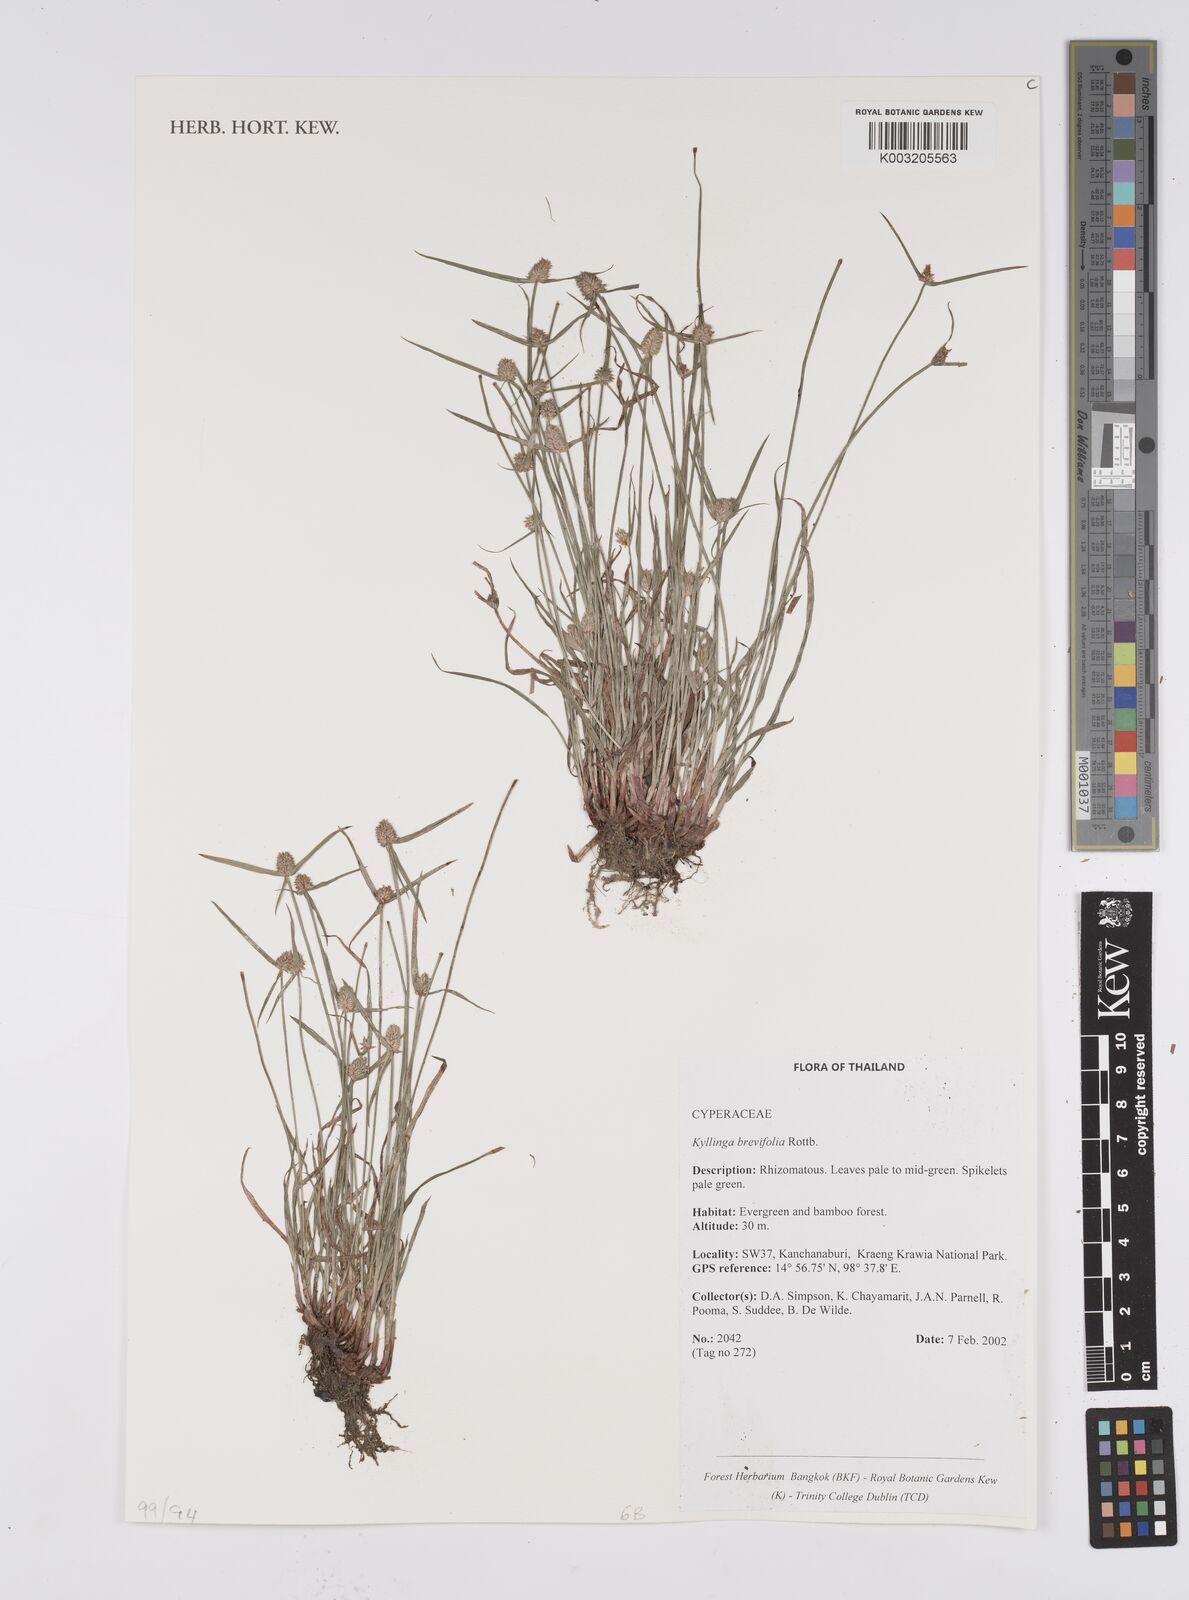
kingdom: Plantae
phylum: Tracheophyta
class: Liliopsida
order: Poales
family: Cyperaceae
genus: Cyperus
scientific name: Cyperus brevifolius
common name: Globe kyllinga
